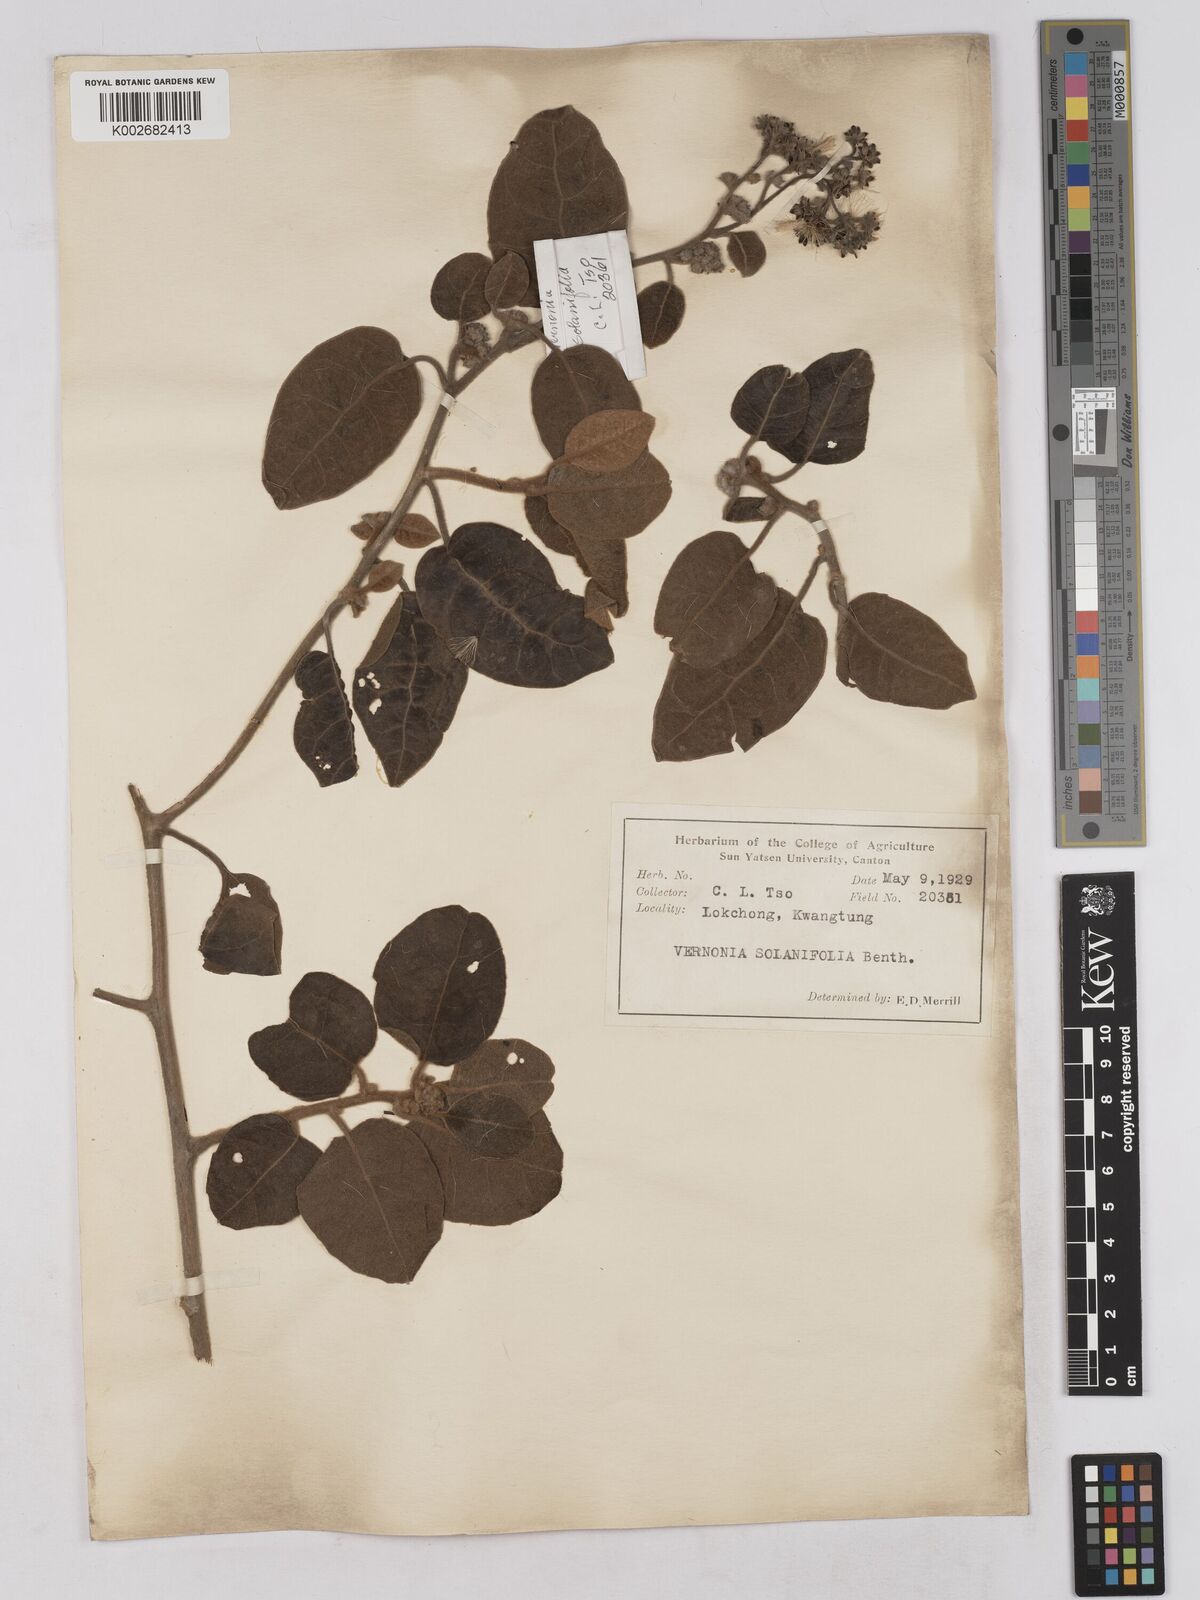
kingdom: Plantae
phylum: Tracheophyta
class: Magnoliopsida
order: Asterales
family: Asteraceae
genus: Strobocalyx
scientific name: Strobocalyx solanifolia
